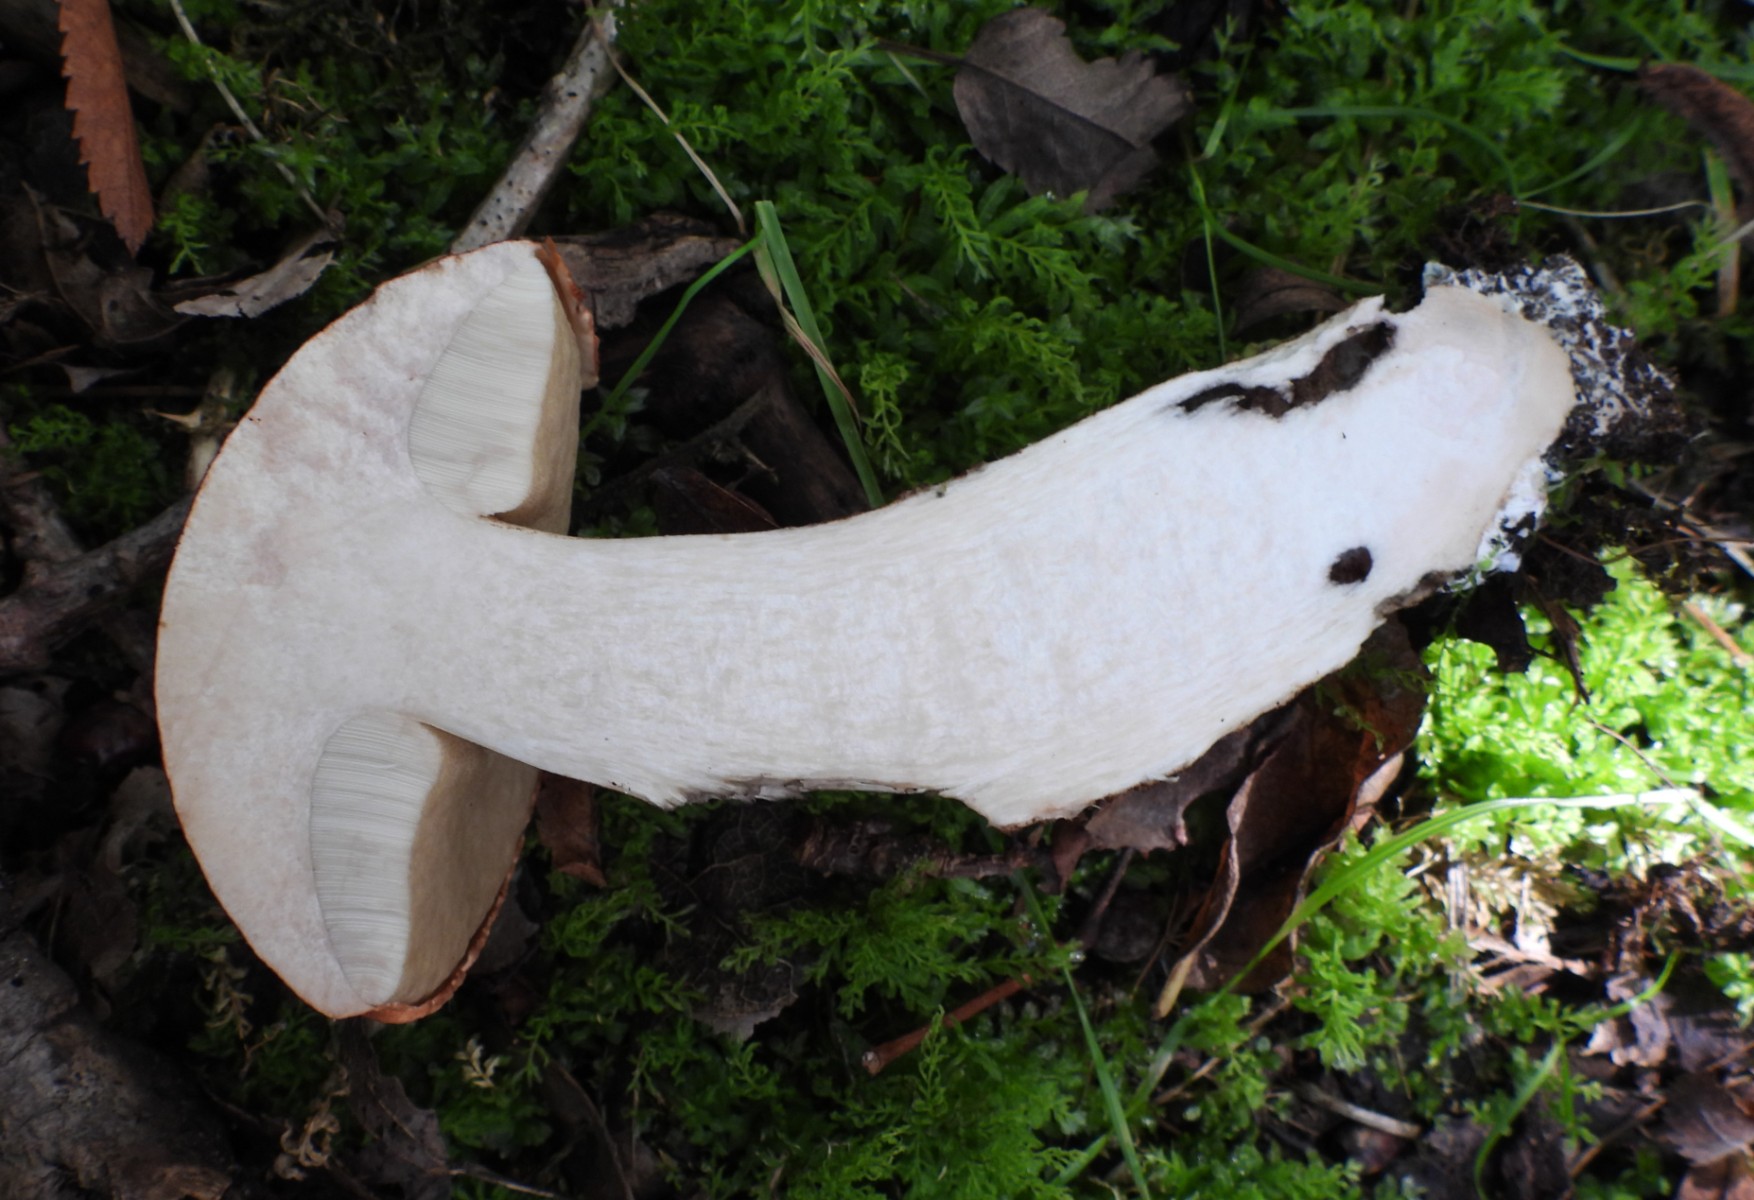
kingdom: Fungi
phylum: Basidiomycota
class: Agaricomycetes
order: Boletales
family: Boletaceae
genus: Leccinum
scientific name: Leccinum aurantiacum
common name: rustrød skælrørhat
